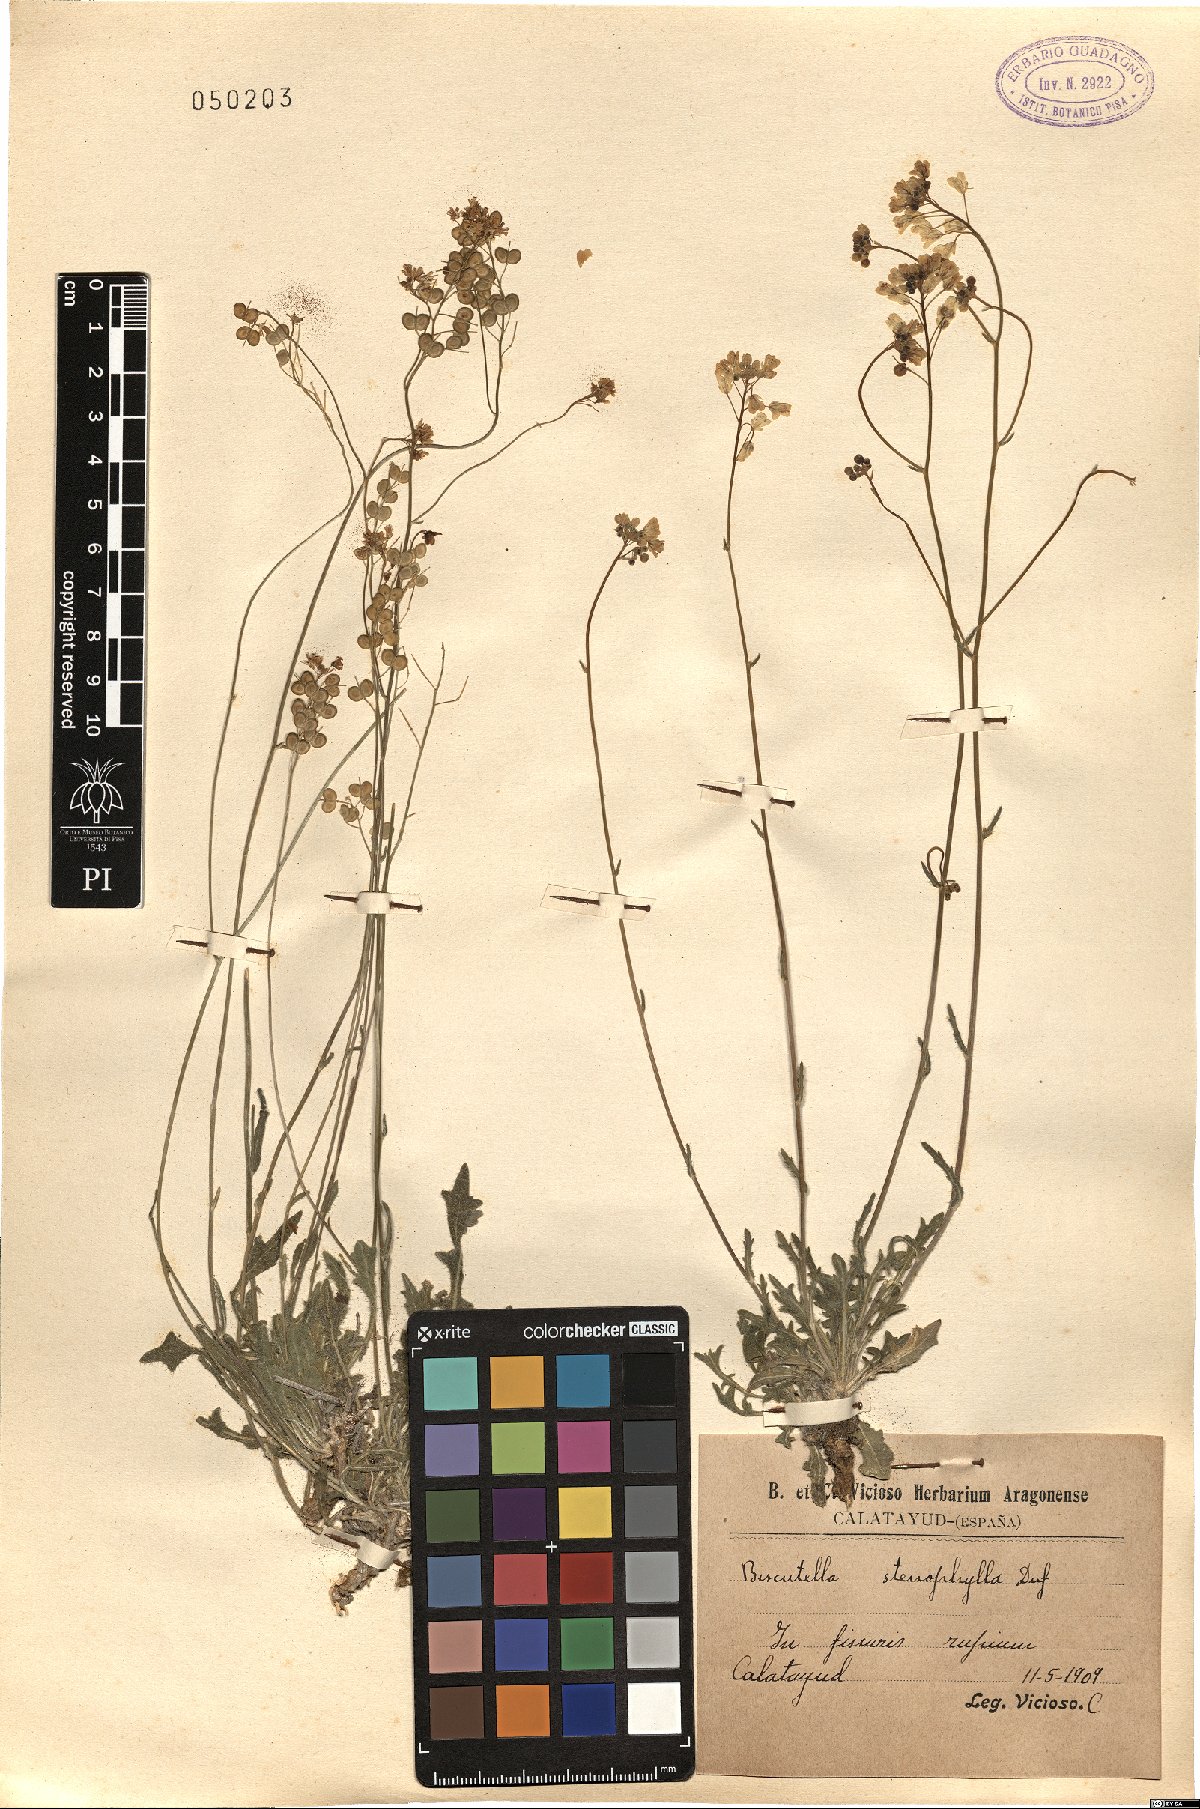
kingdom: Plantae
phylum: Tracheophyta
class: Magnoliopsida
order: Brassicales
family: Brassicaceae
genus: Biscutella
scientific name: Biscutella valentina
